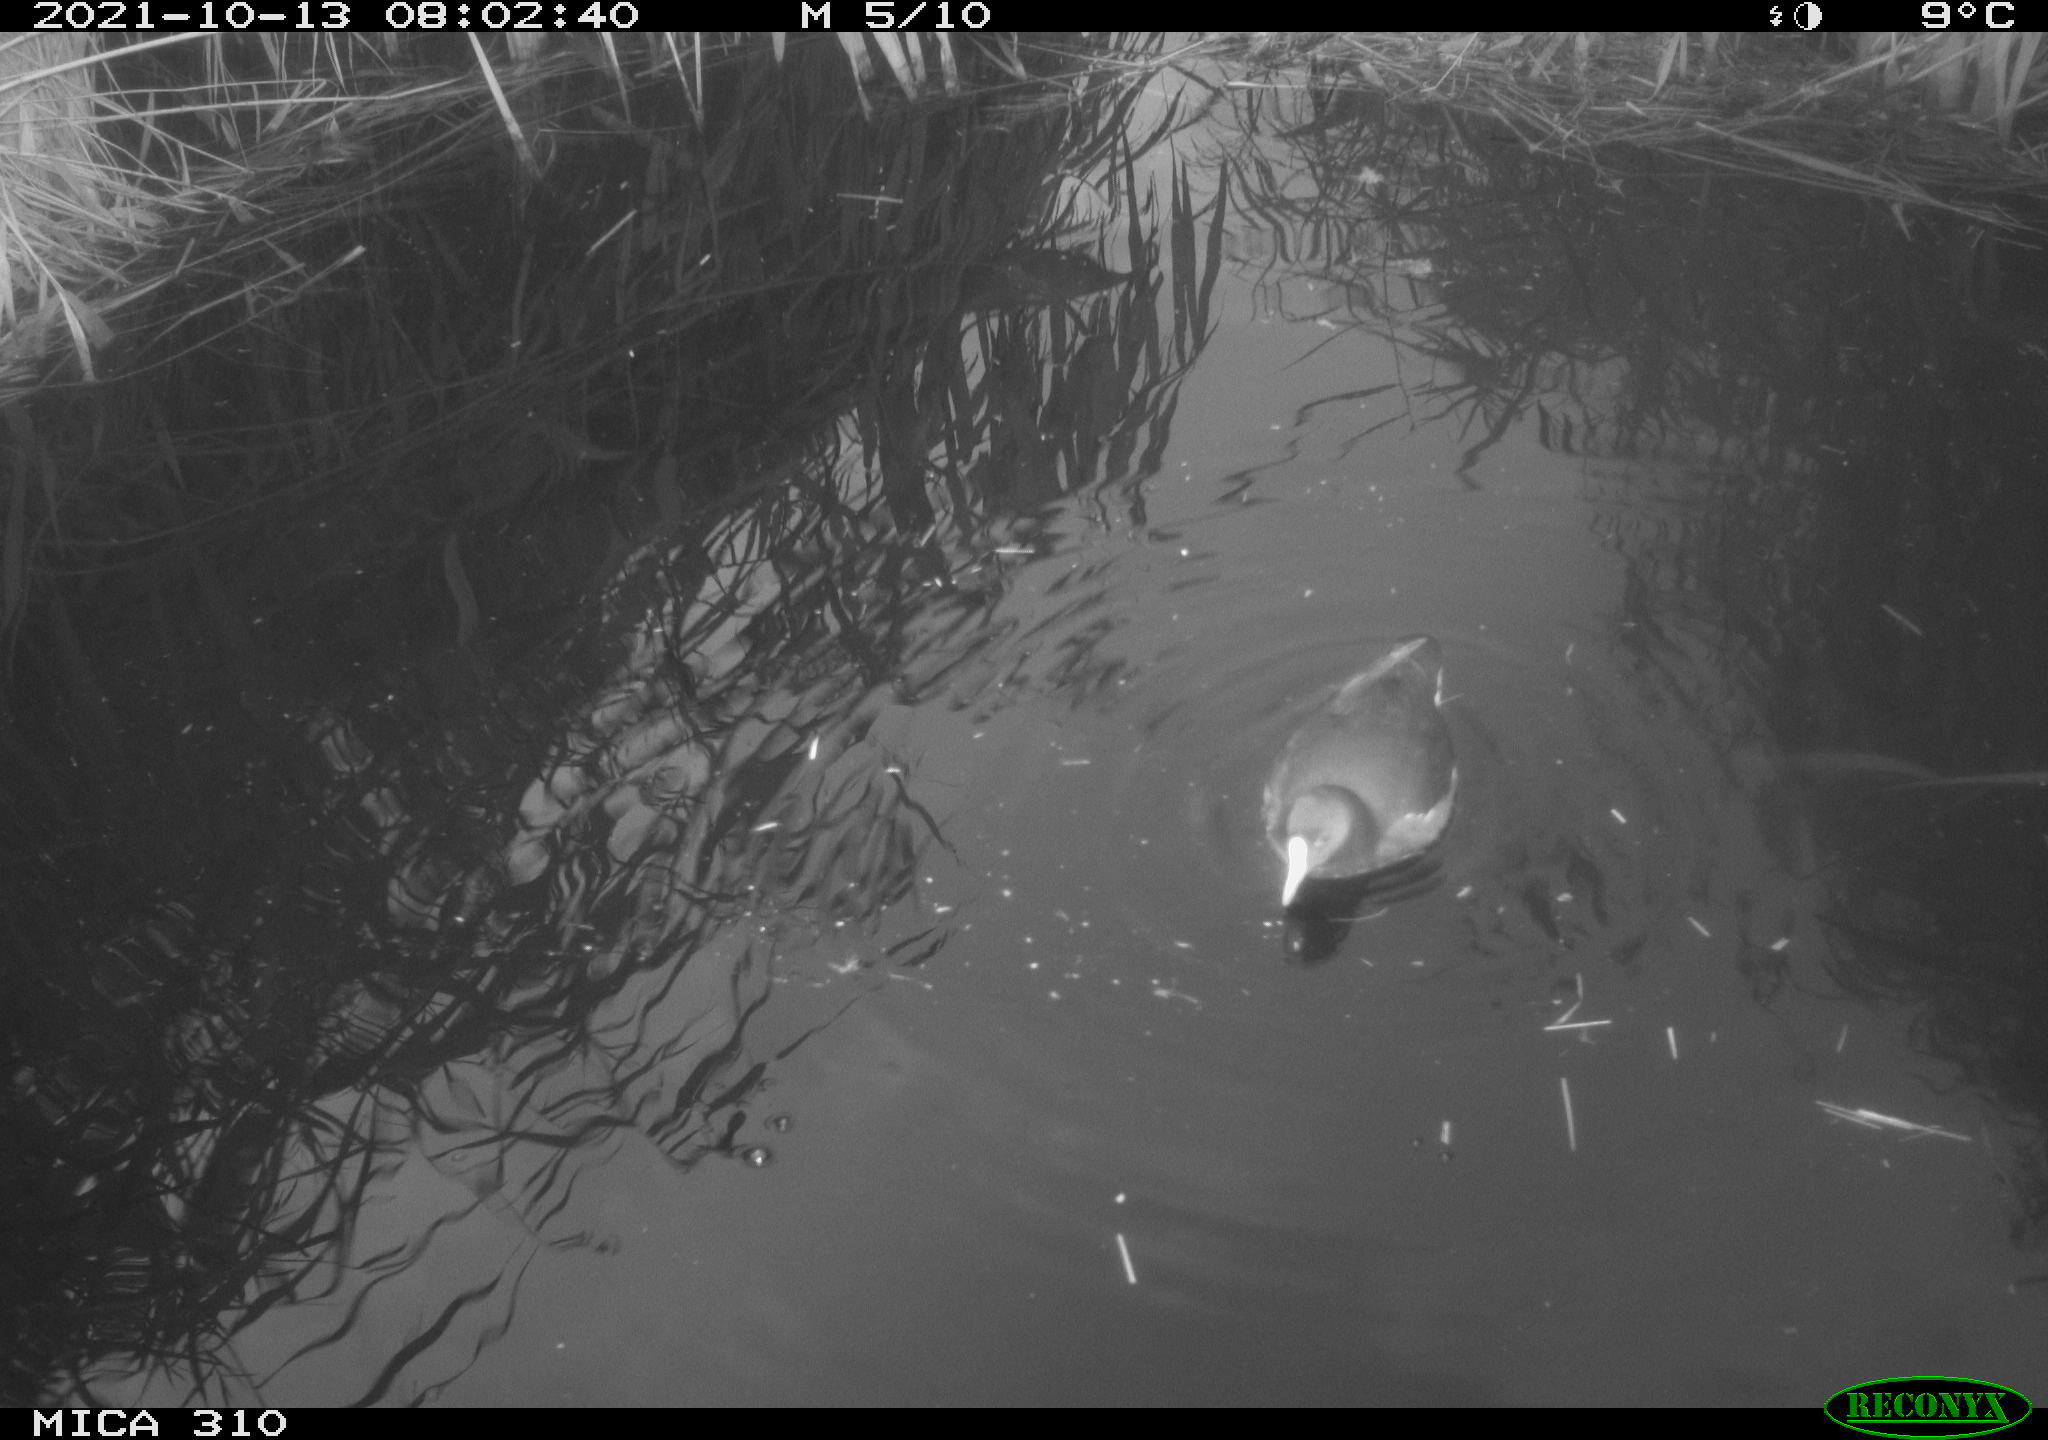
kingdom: Animalia
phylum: Chordata
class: Aves
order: Gruiformes
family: Rallidae
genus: Gallinula
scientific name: Gallinula chloropus
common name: Common moorhen
